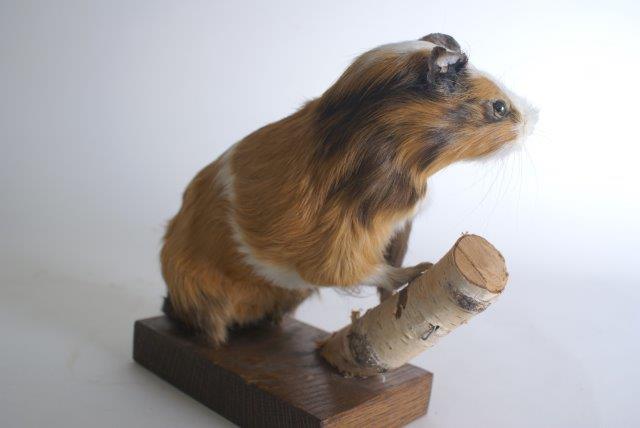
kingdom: Animalia
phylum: Chordata
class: Mammalia
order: Rodentia
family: Caviidae
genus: Cavia
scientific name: Cavia aperea
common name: Brazilian Guinea Pig
